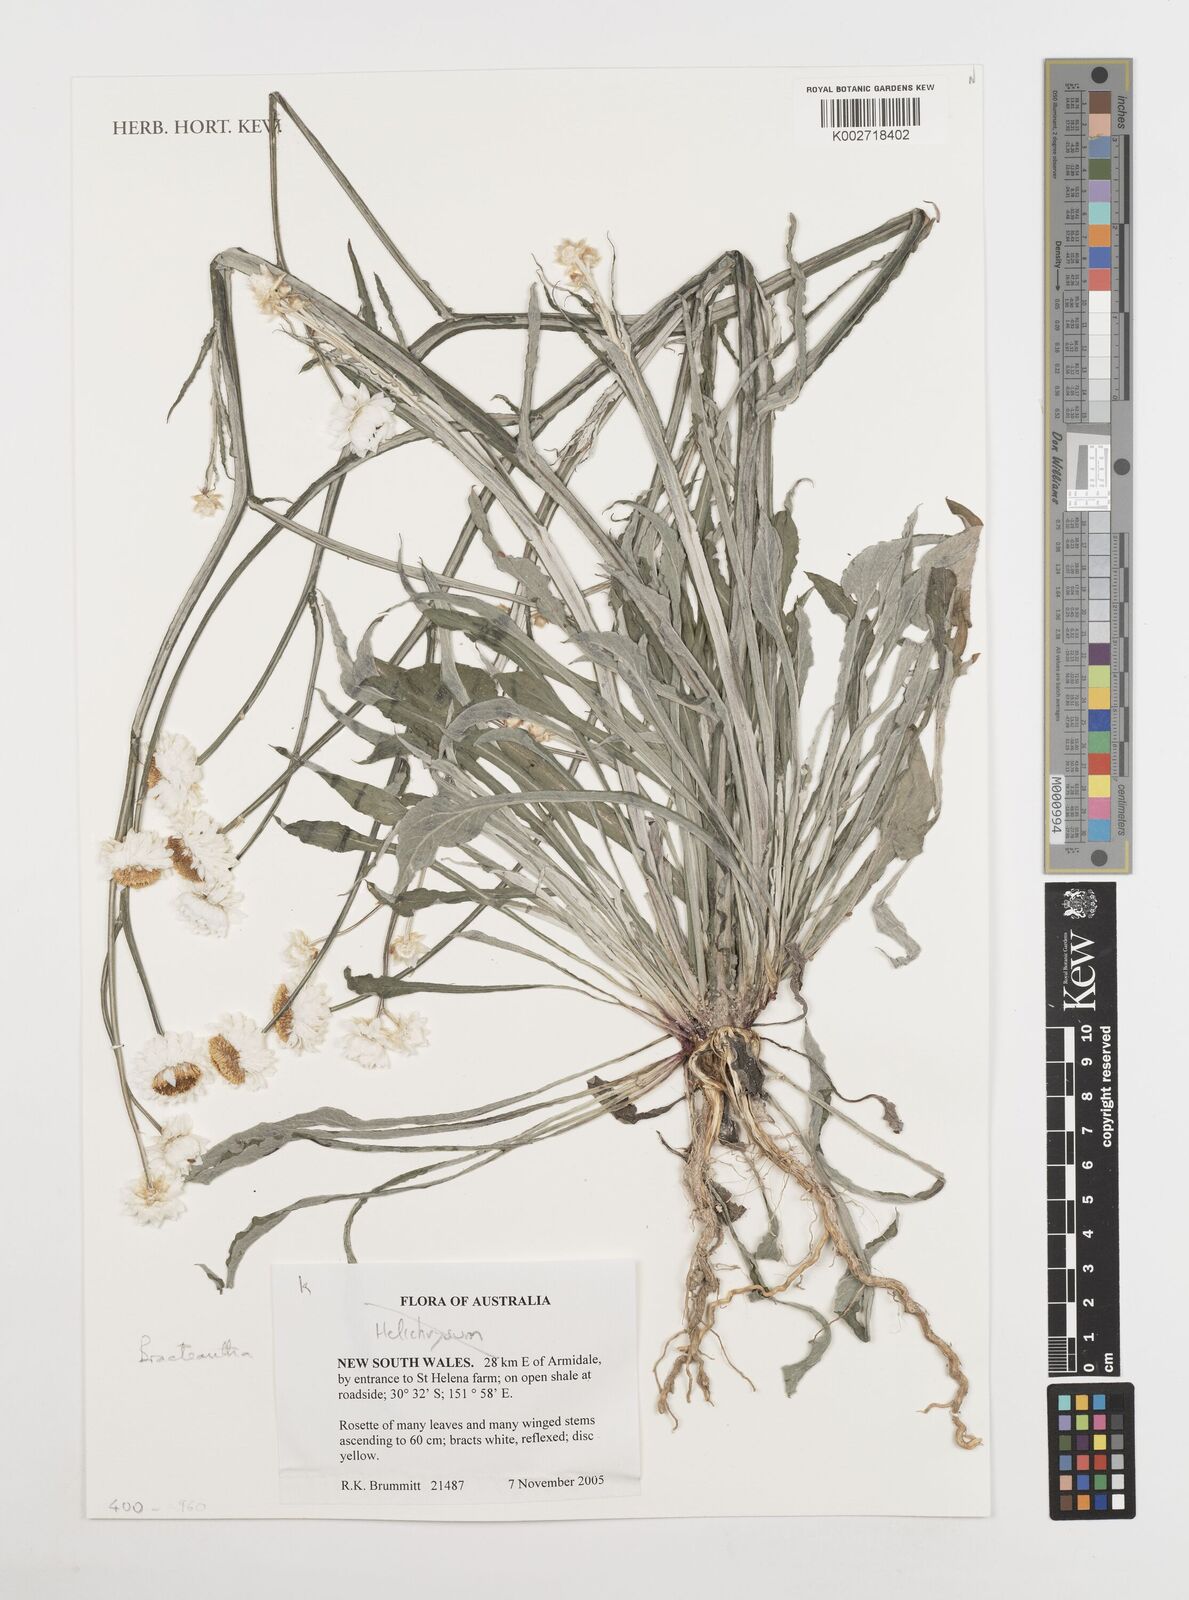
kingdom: Plantae
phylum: Tracheophyta
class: Magnoliopsida
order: Asterales
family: Asteraceae
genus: Xerochrysum
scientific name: Xerochrysum
